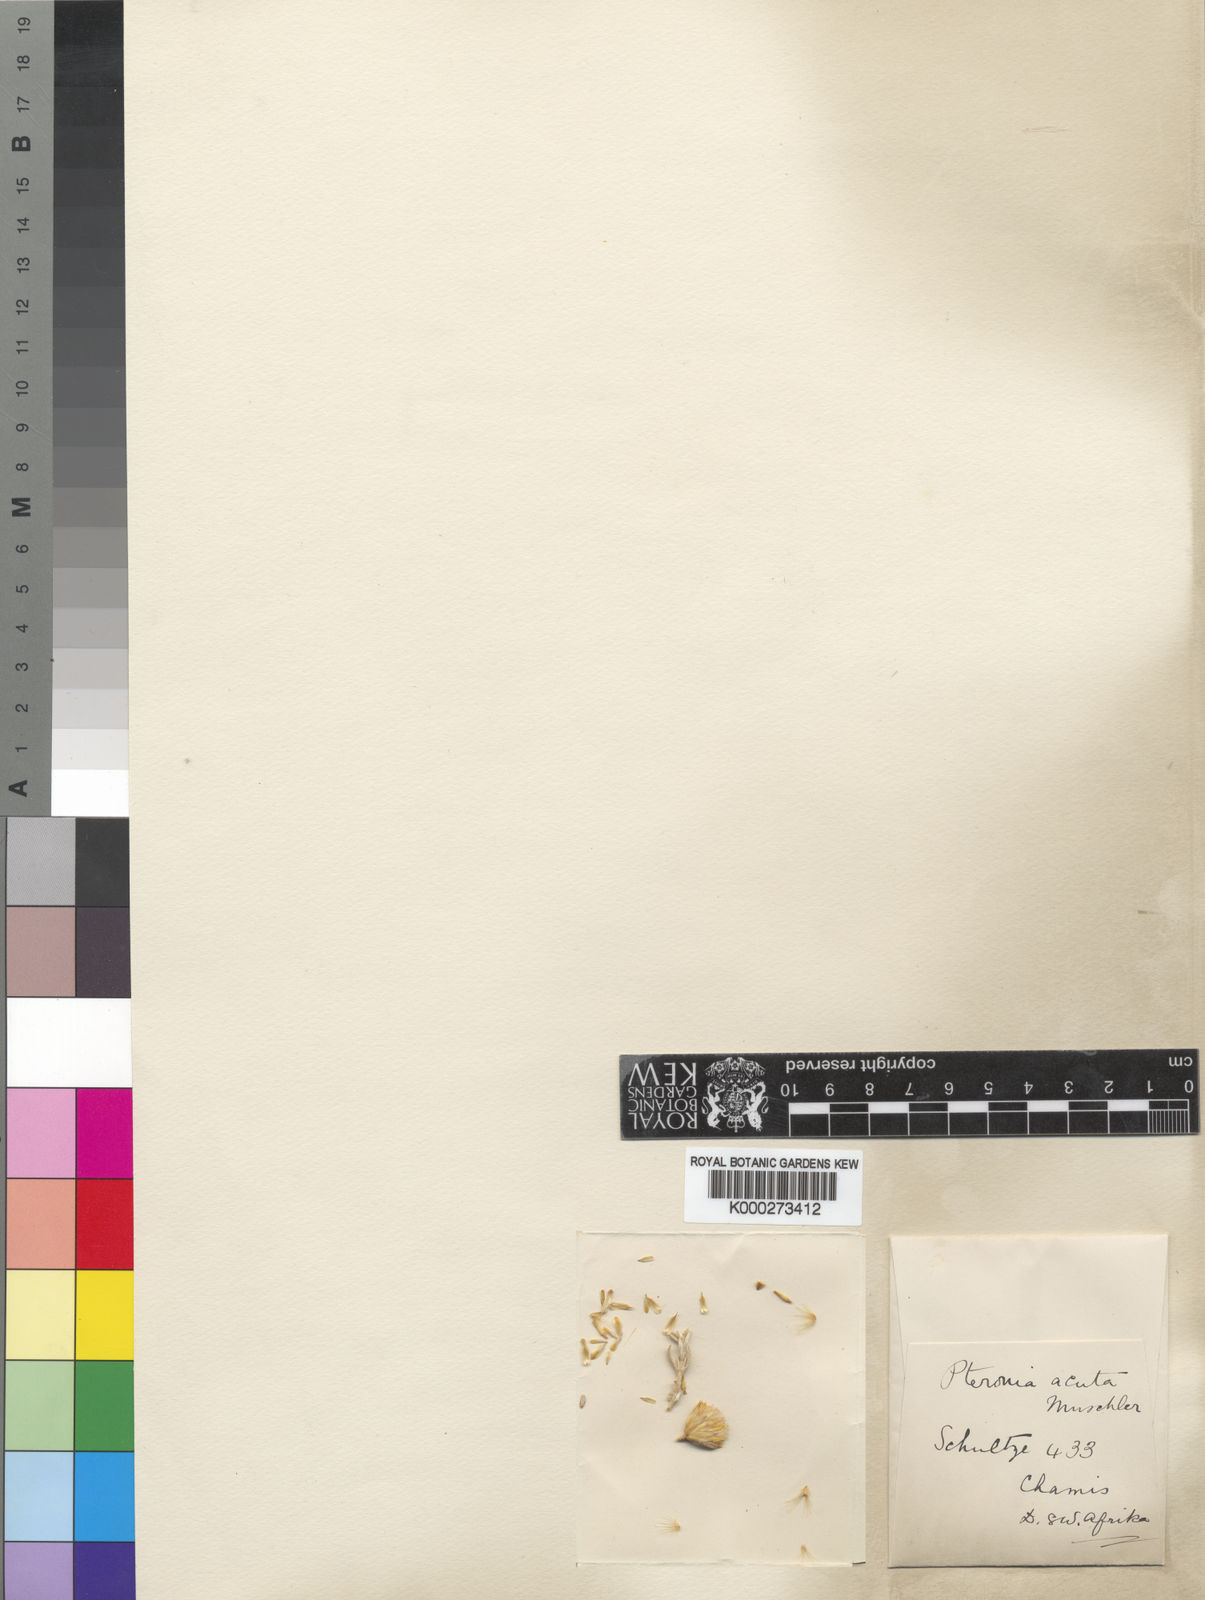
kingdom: Plantae
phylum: Tracheophyta
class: Magnoliopsida
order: Asterales
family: Asteraceae
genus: Pteronia
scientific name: Pteronia acuta
